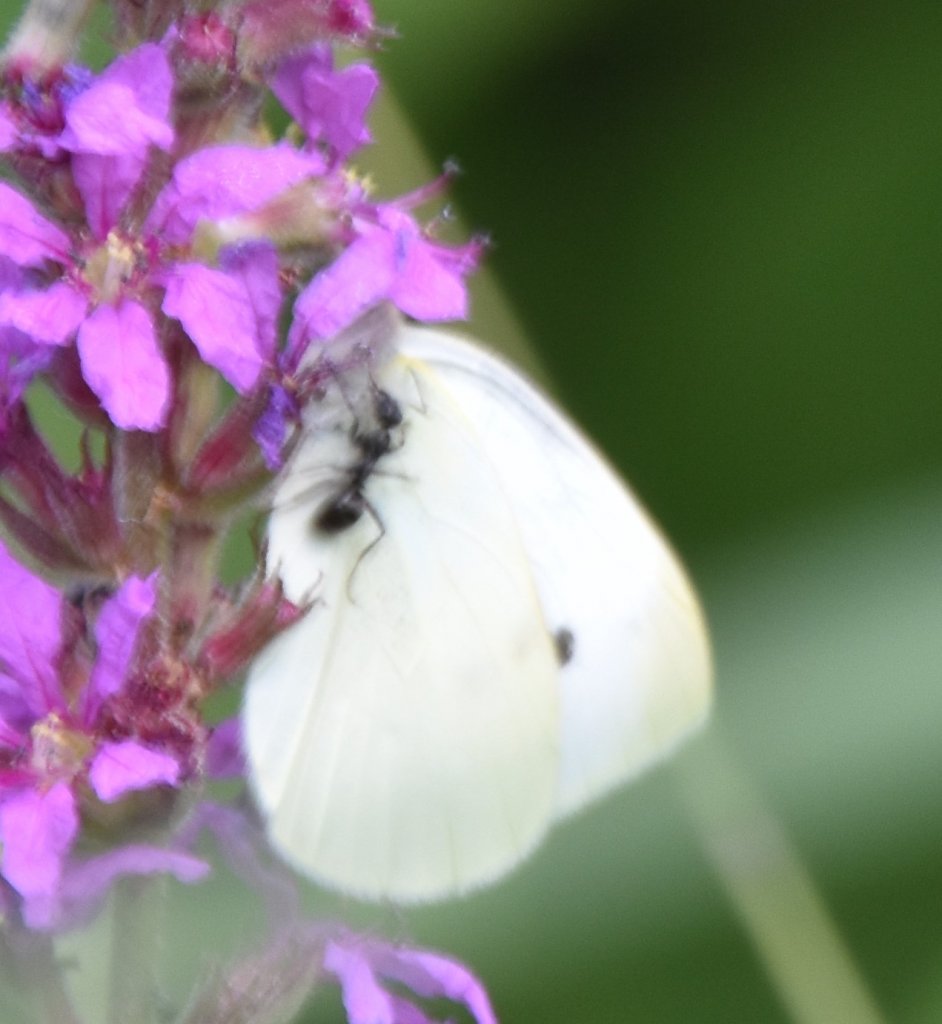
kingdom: Animalia
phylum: Arthropoda
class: Insecta
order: Lepidoptera
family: Pieridae
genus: Pieris
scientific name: Pieris rapae
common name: Cabbage White
